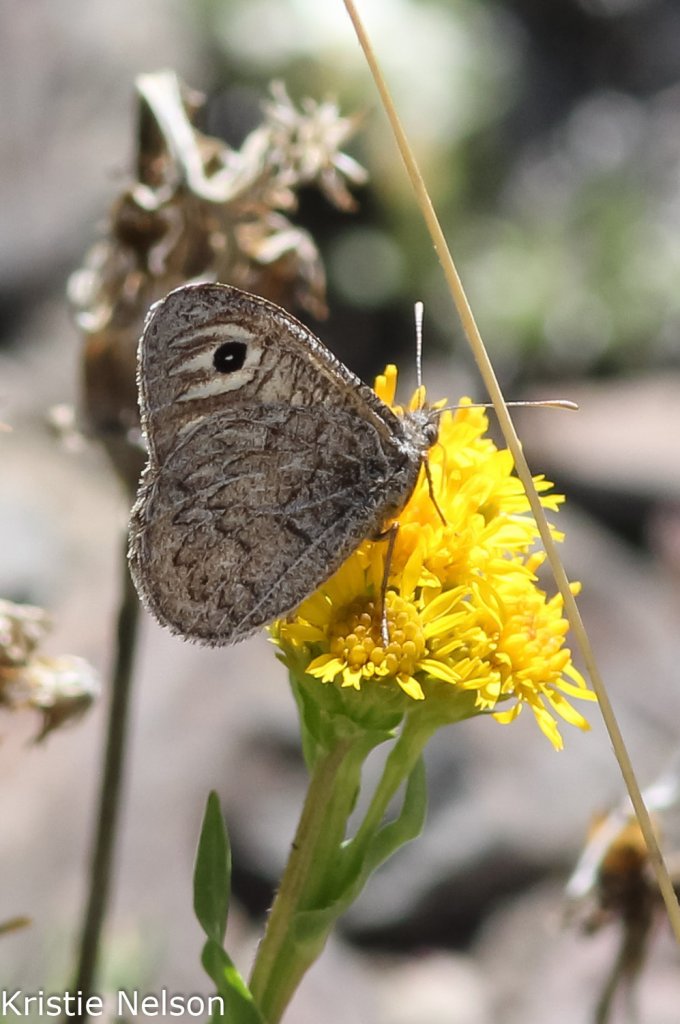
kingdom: Animalia
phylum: Arthropoda
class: Insecta
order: Lepidoptera
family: Nymphalidae
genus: Neominois
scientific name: Neominois ridingsii
